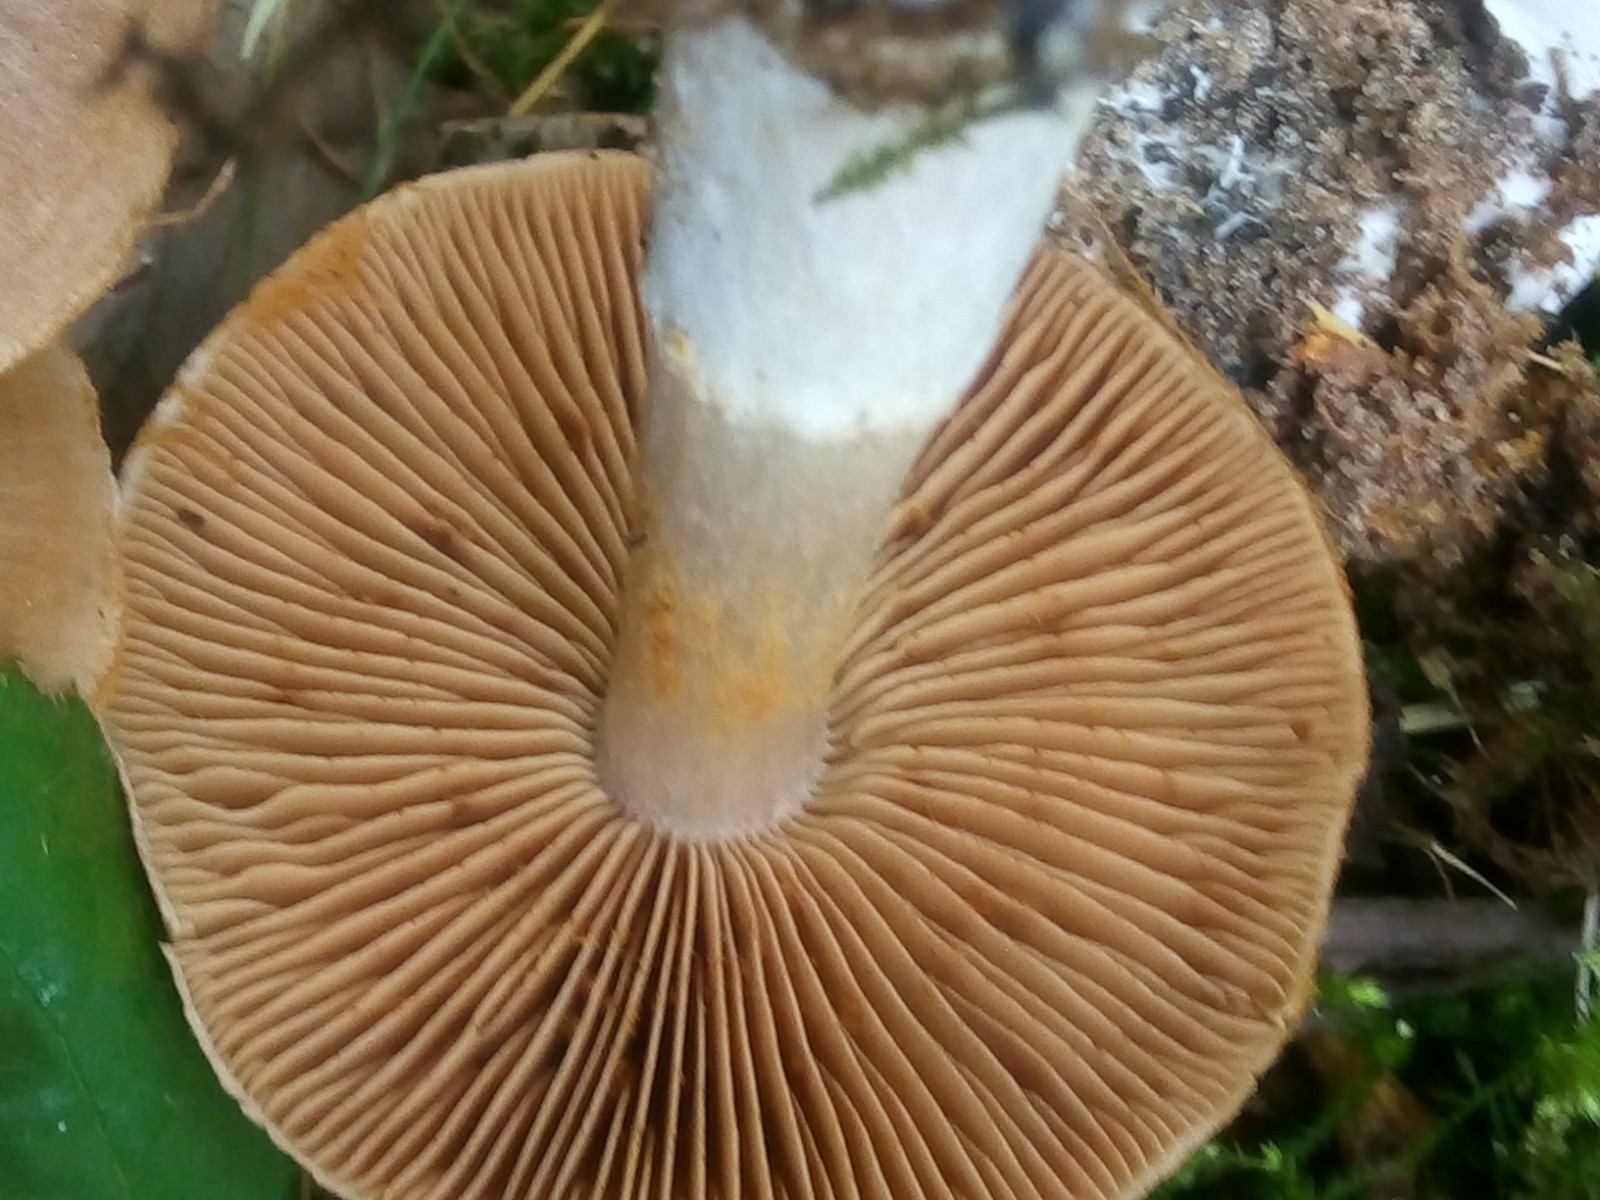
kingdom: Fungi
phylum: Basidiomycota
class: Agaricomycetes
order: Agaricales
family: Cortinariaceae
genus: Cortinarius
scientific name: Cortinarius murinascens
